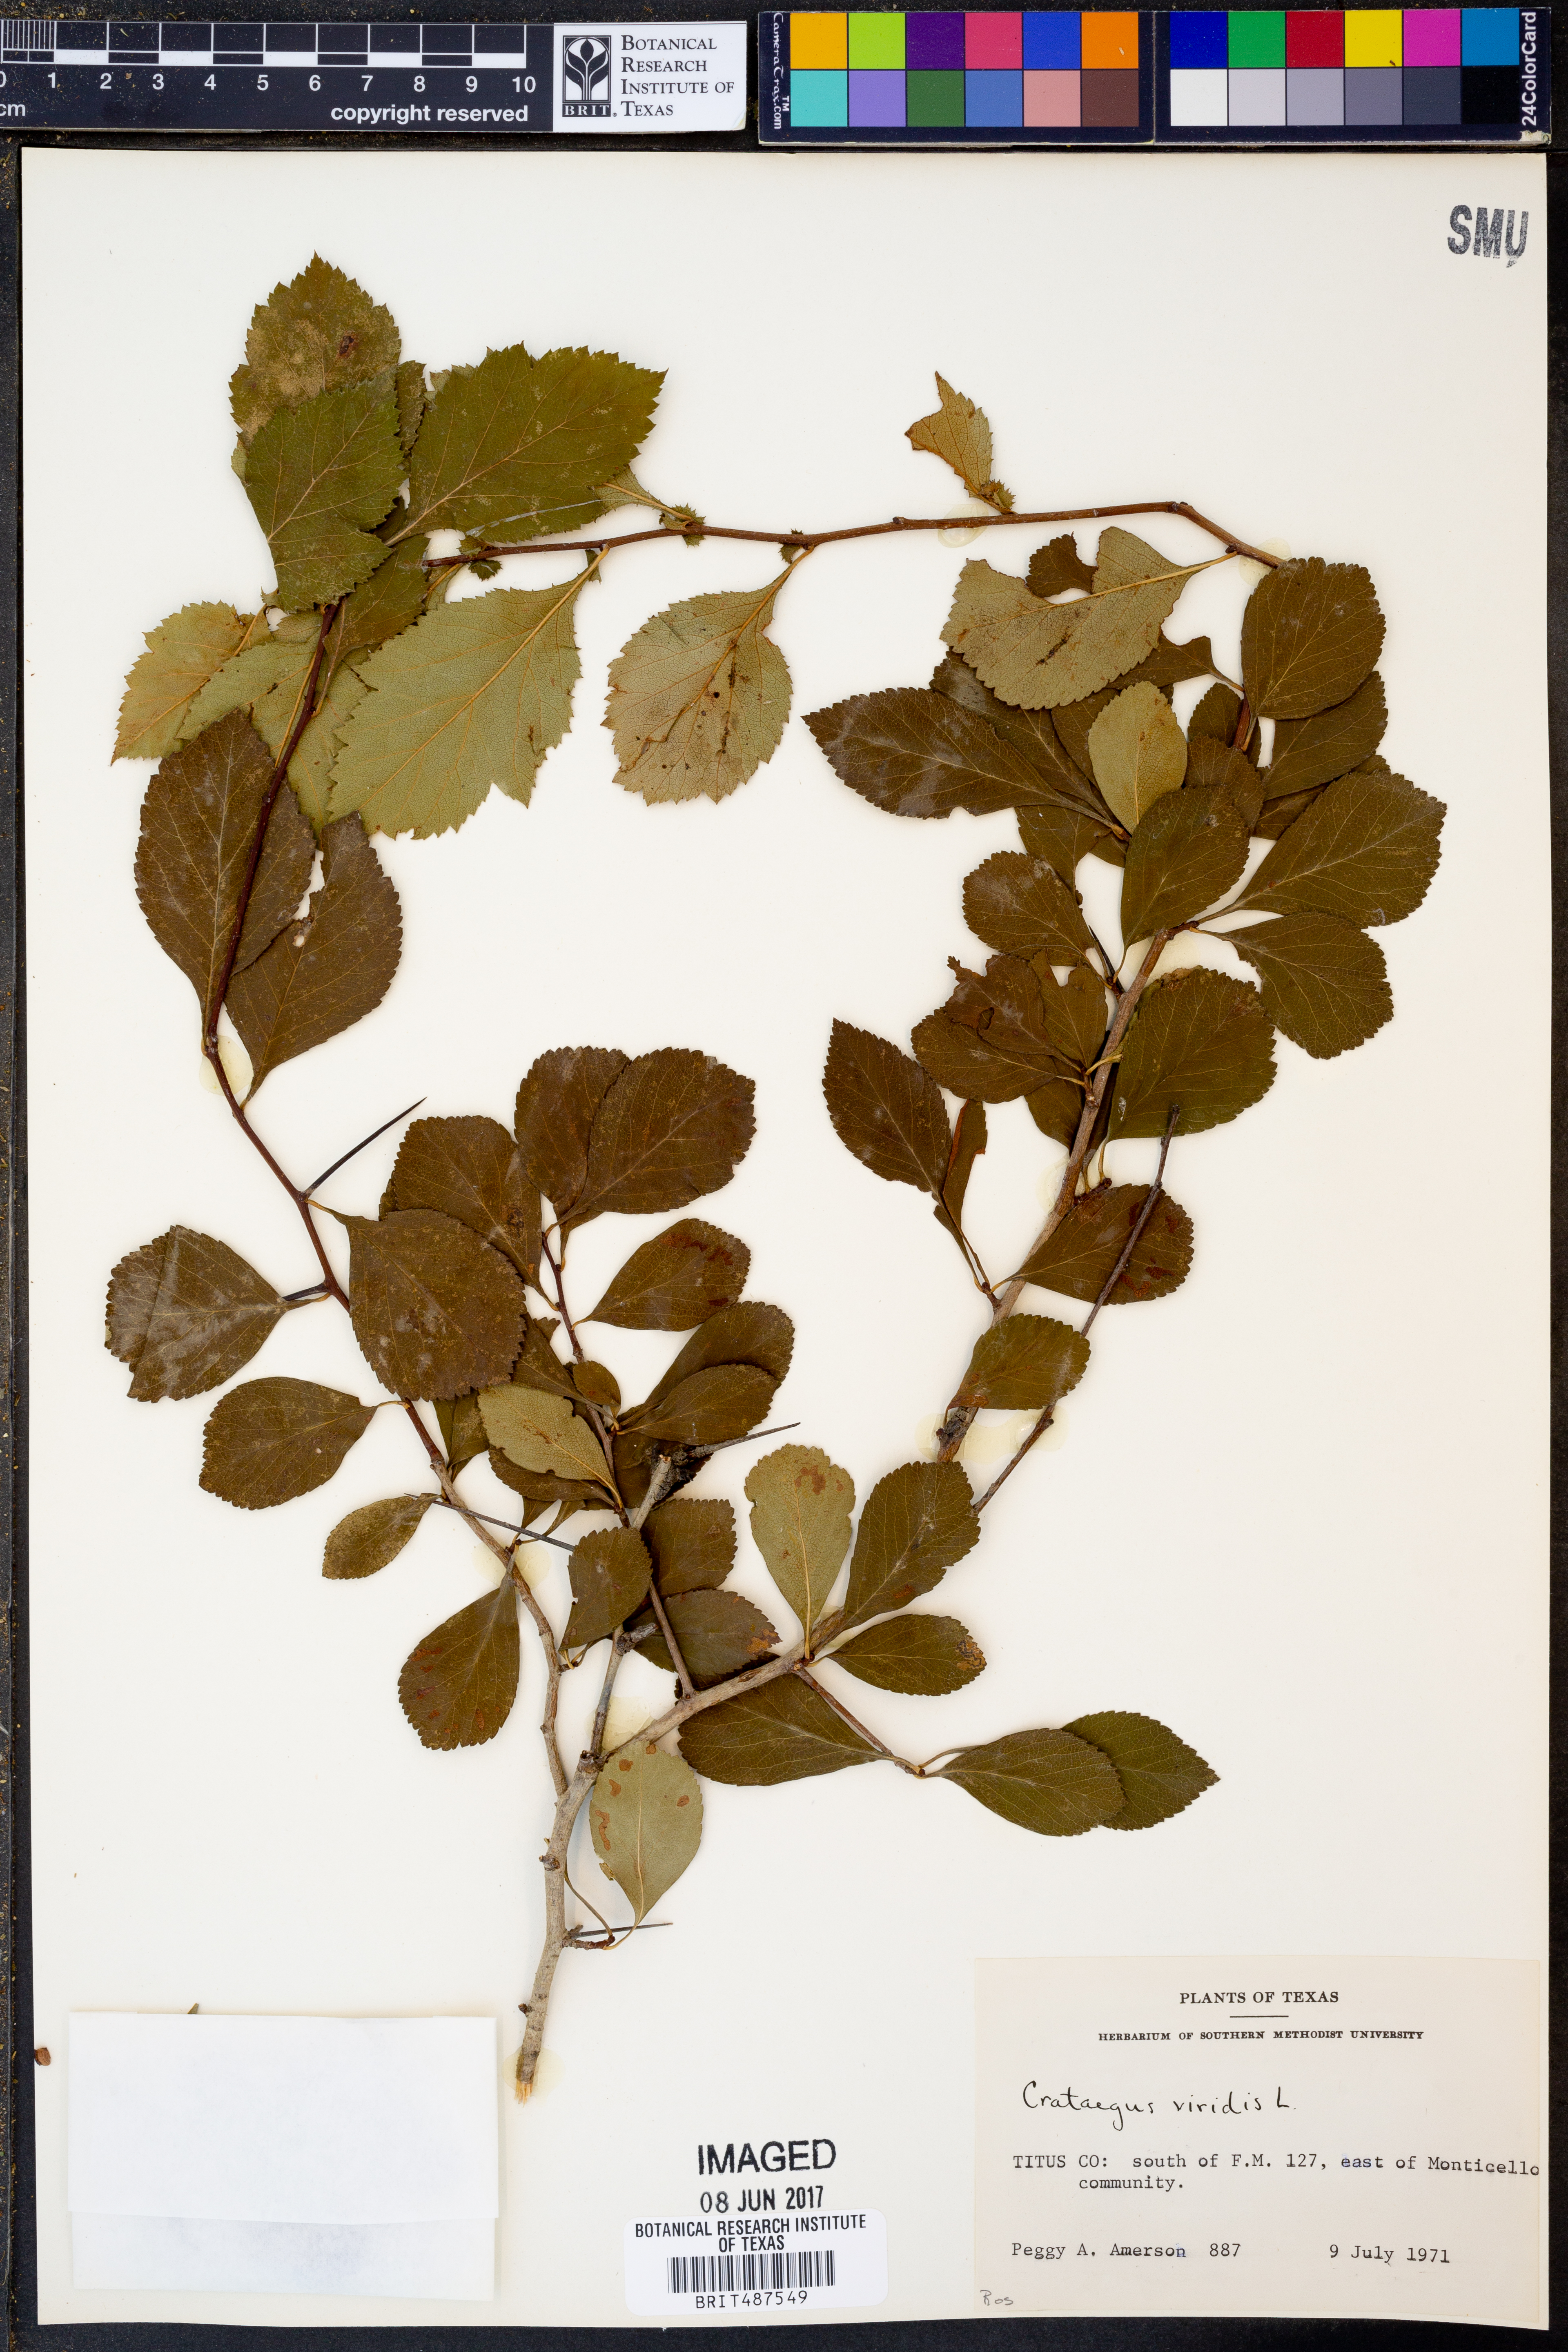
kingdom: Plantae
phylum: Tracheophyta
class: Magnoliopsida
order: Rosales
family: Rosaceae
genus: Crataegus
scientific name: Crataegus viridis
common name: Southernthorn
